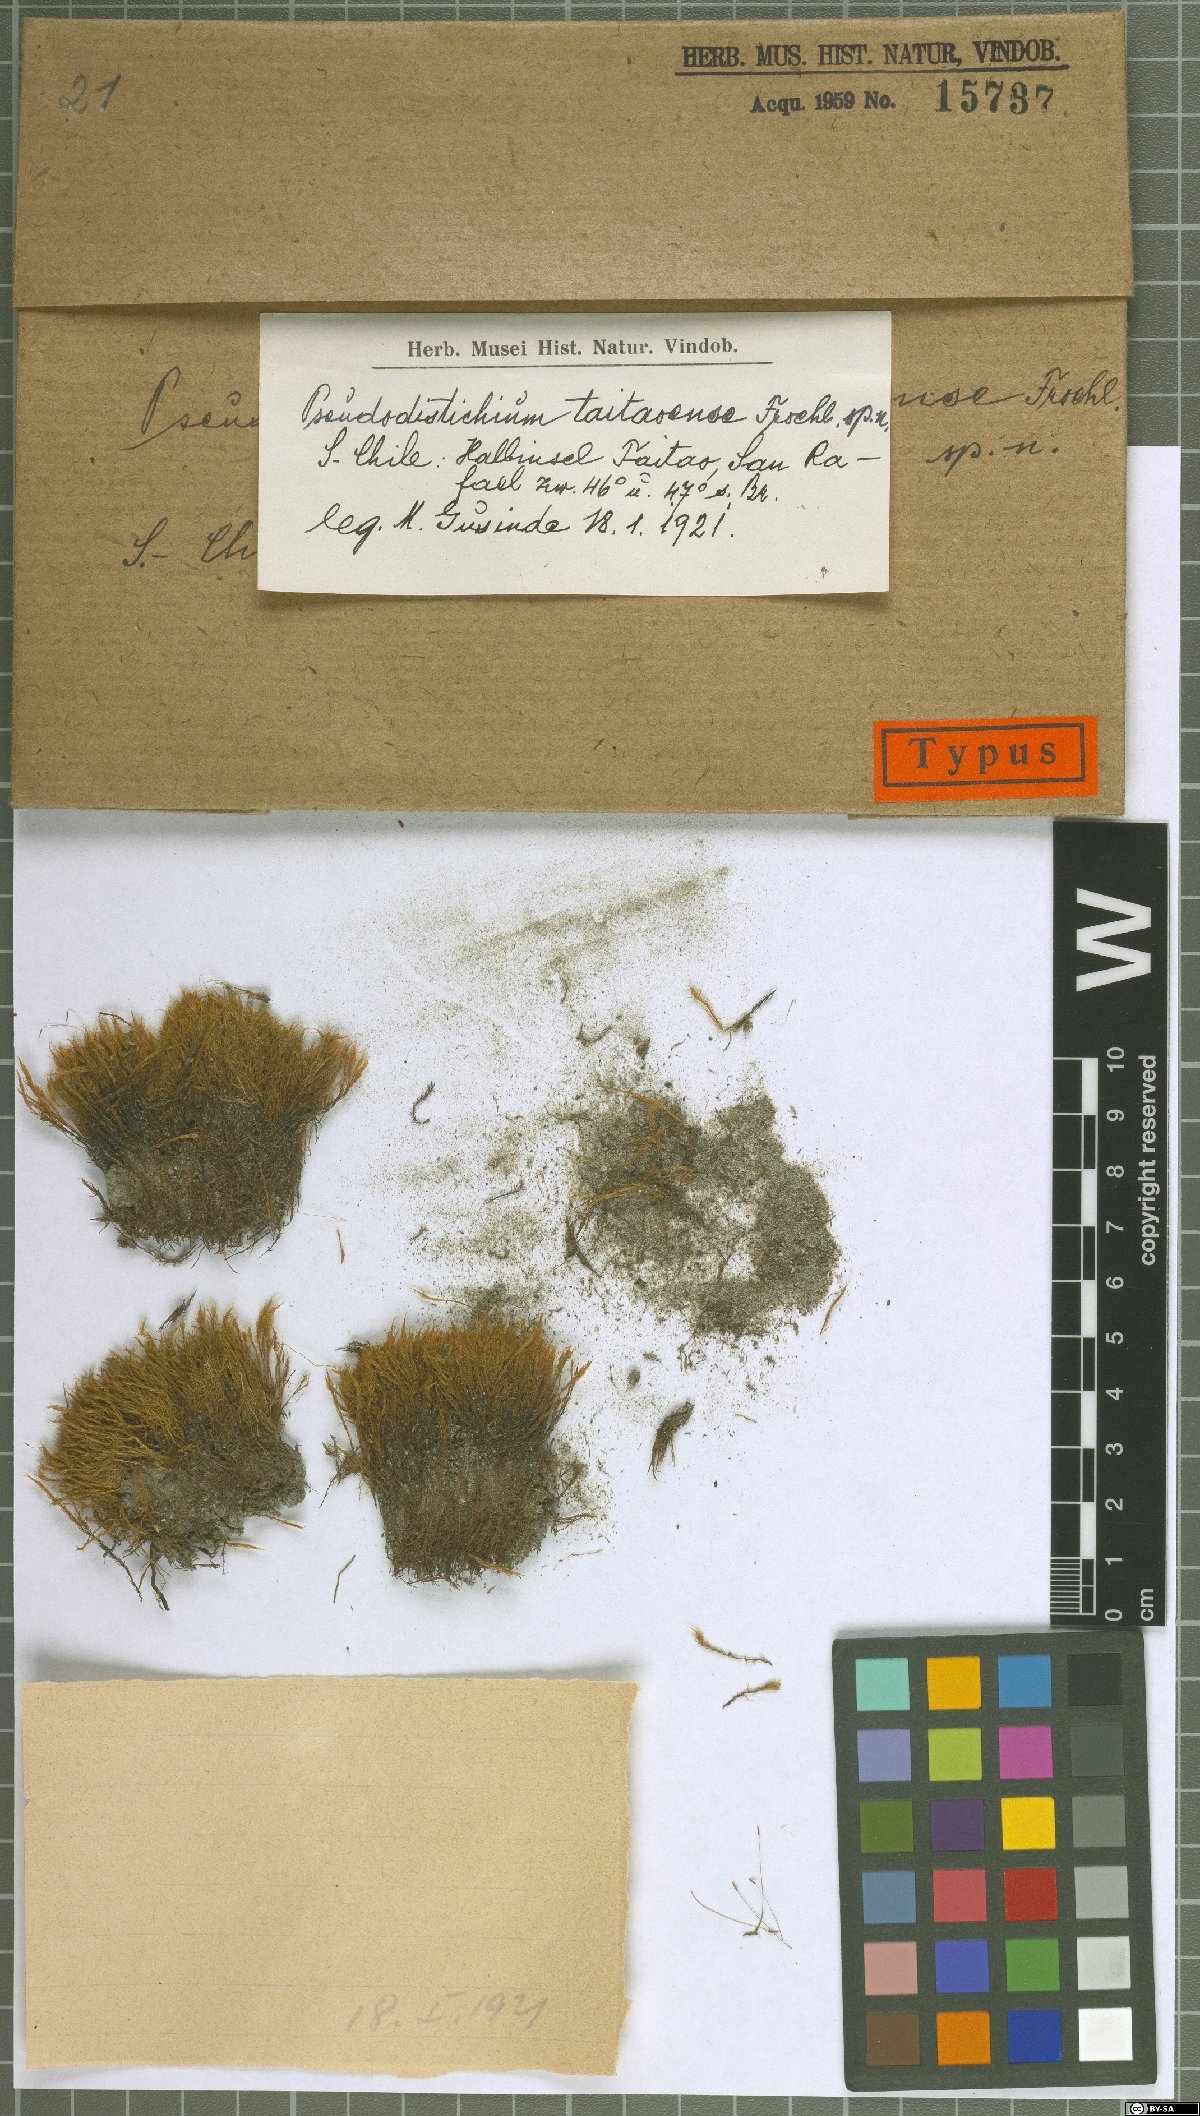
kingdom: Plantae
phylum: Bryophyta
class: Bryopsida
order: Dicranales
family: Ditrichaceae
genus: Ditrichum
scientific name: Ditrichum conicum
